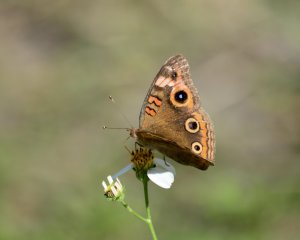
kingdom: Animalia
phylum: Arthropoda
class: Insecta
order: Lepidoptera
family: Nymphalidae
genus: Junonia
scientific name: Junonia evarete
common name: Mangrove Buckeye
